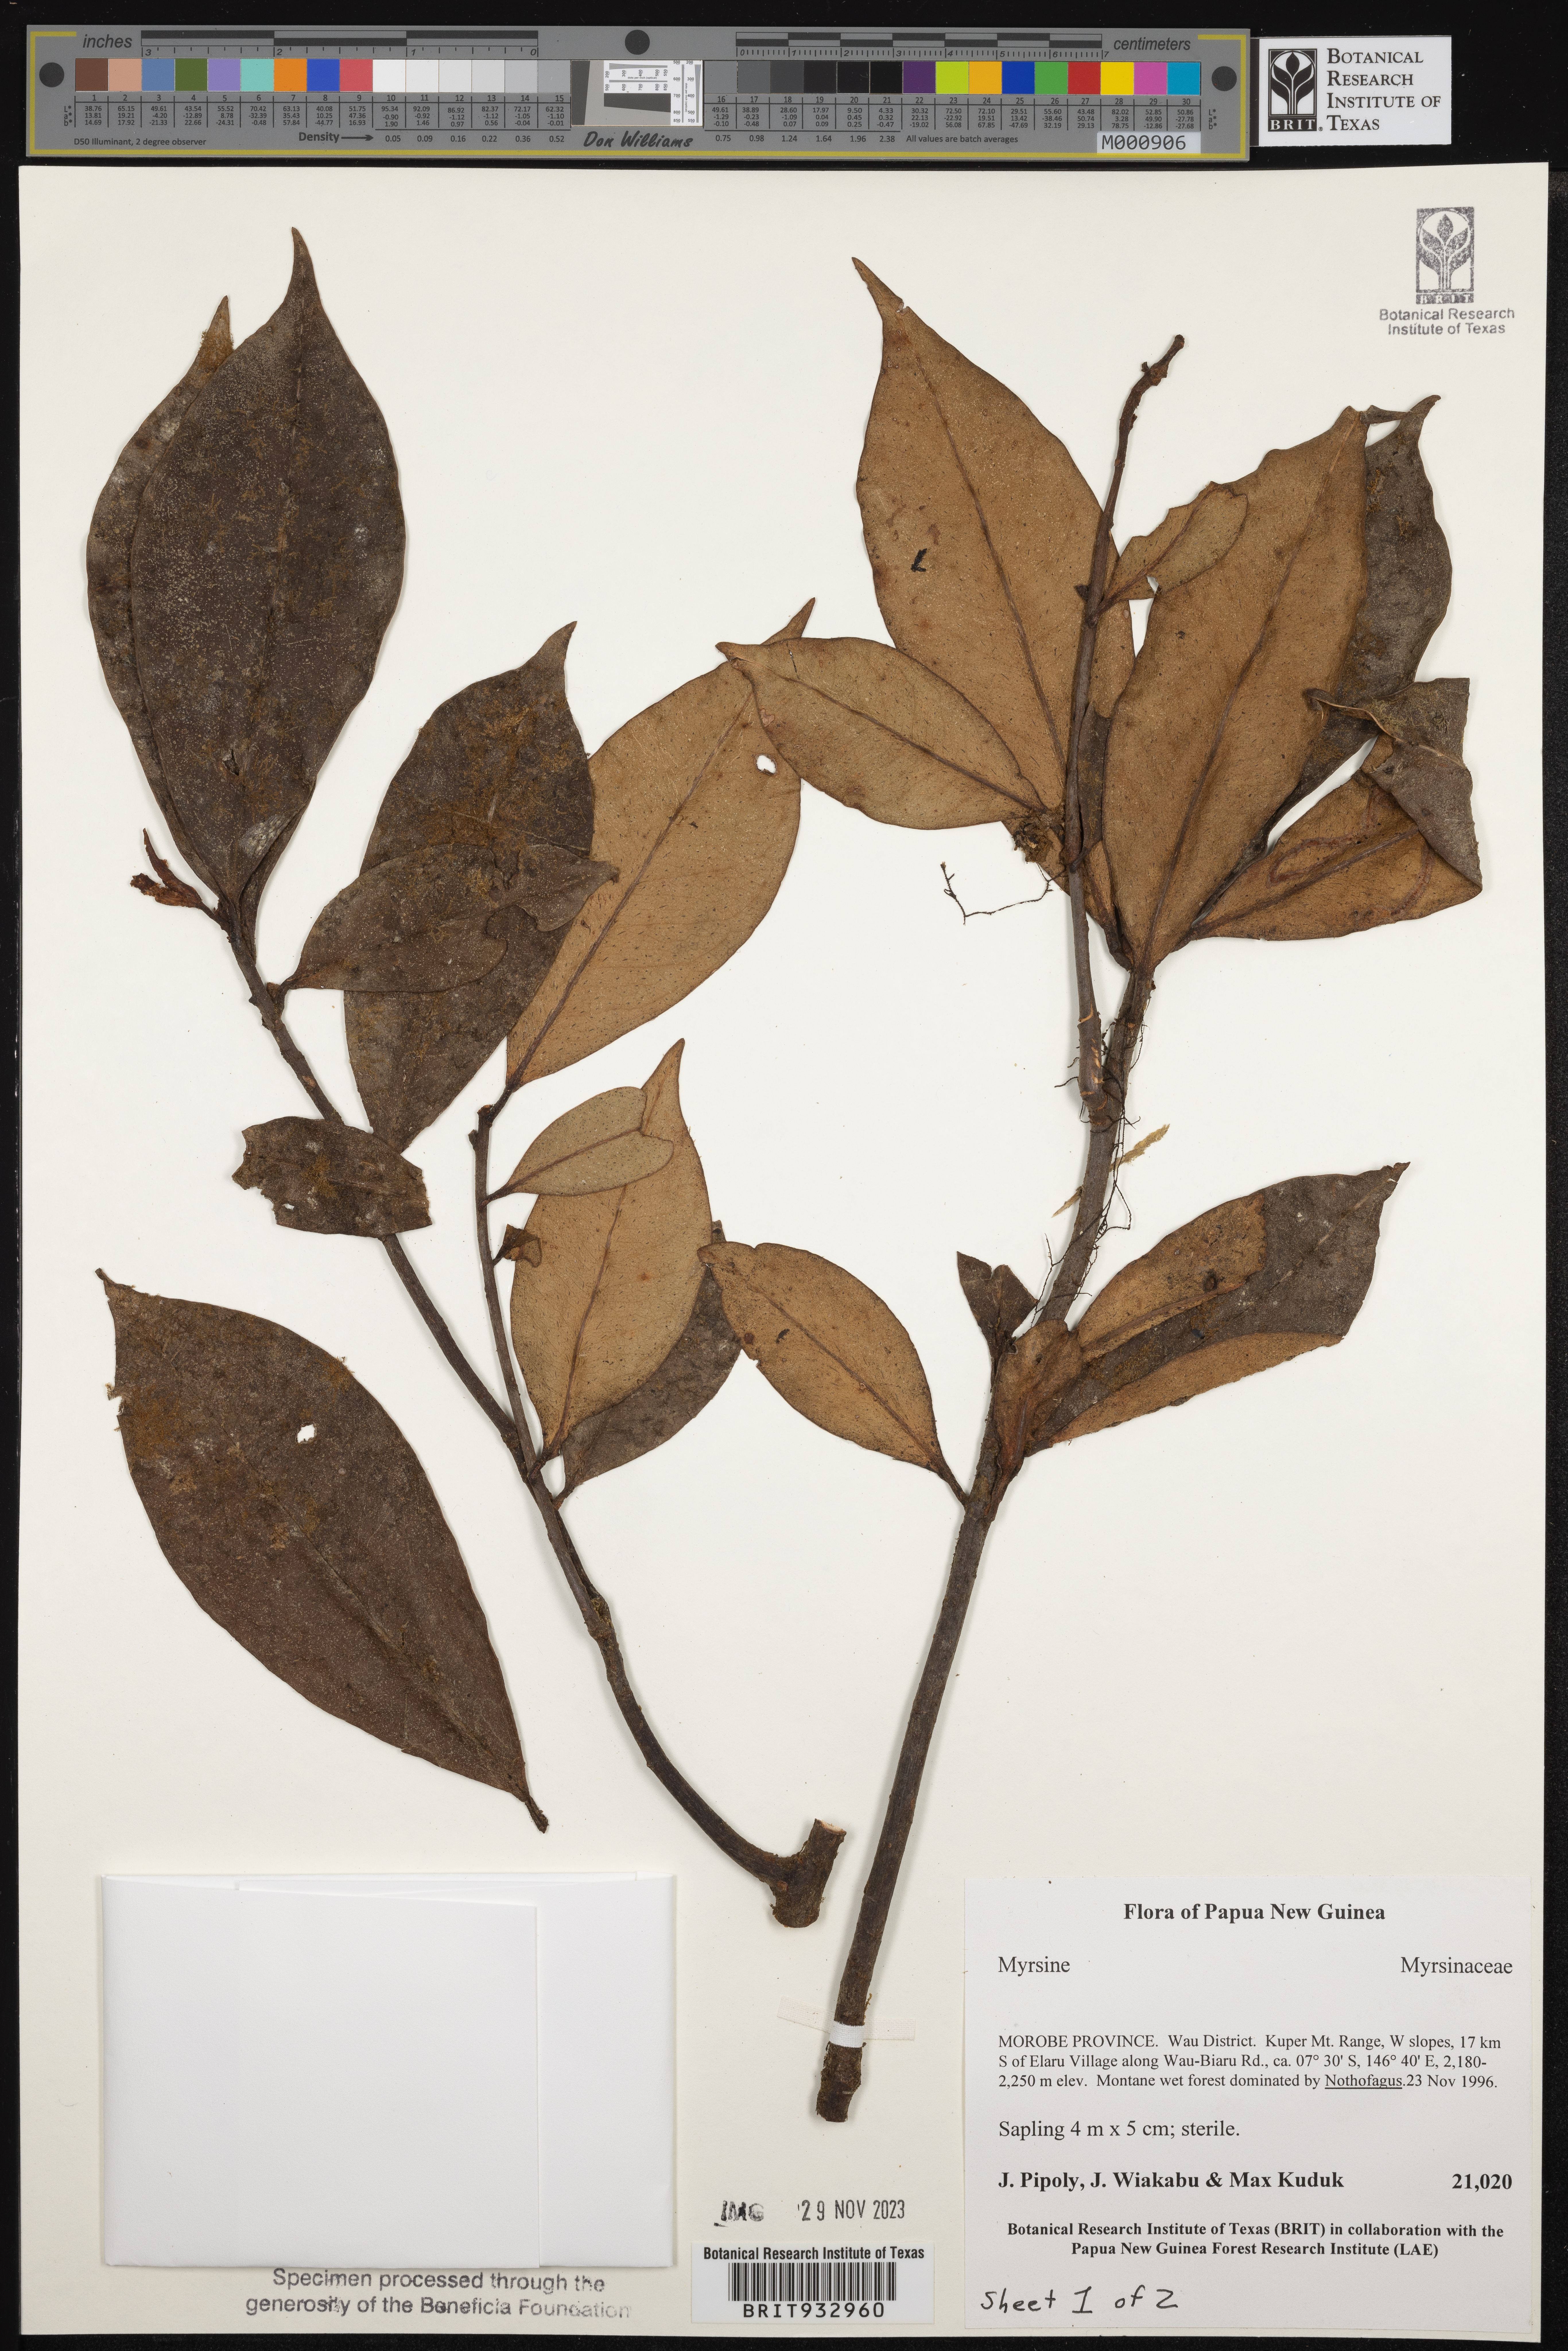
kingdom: Plantae
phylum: Tracheophyta
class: Magnoliopsida
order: Ericales
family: Primulaceae
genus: Myrsine
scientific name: Myrsine
